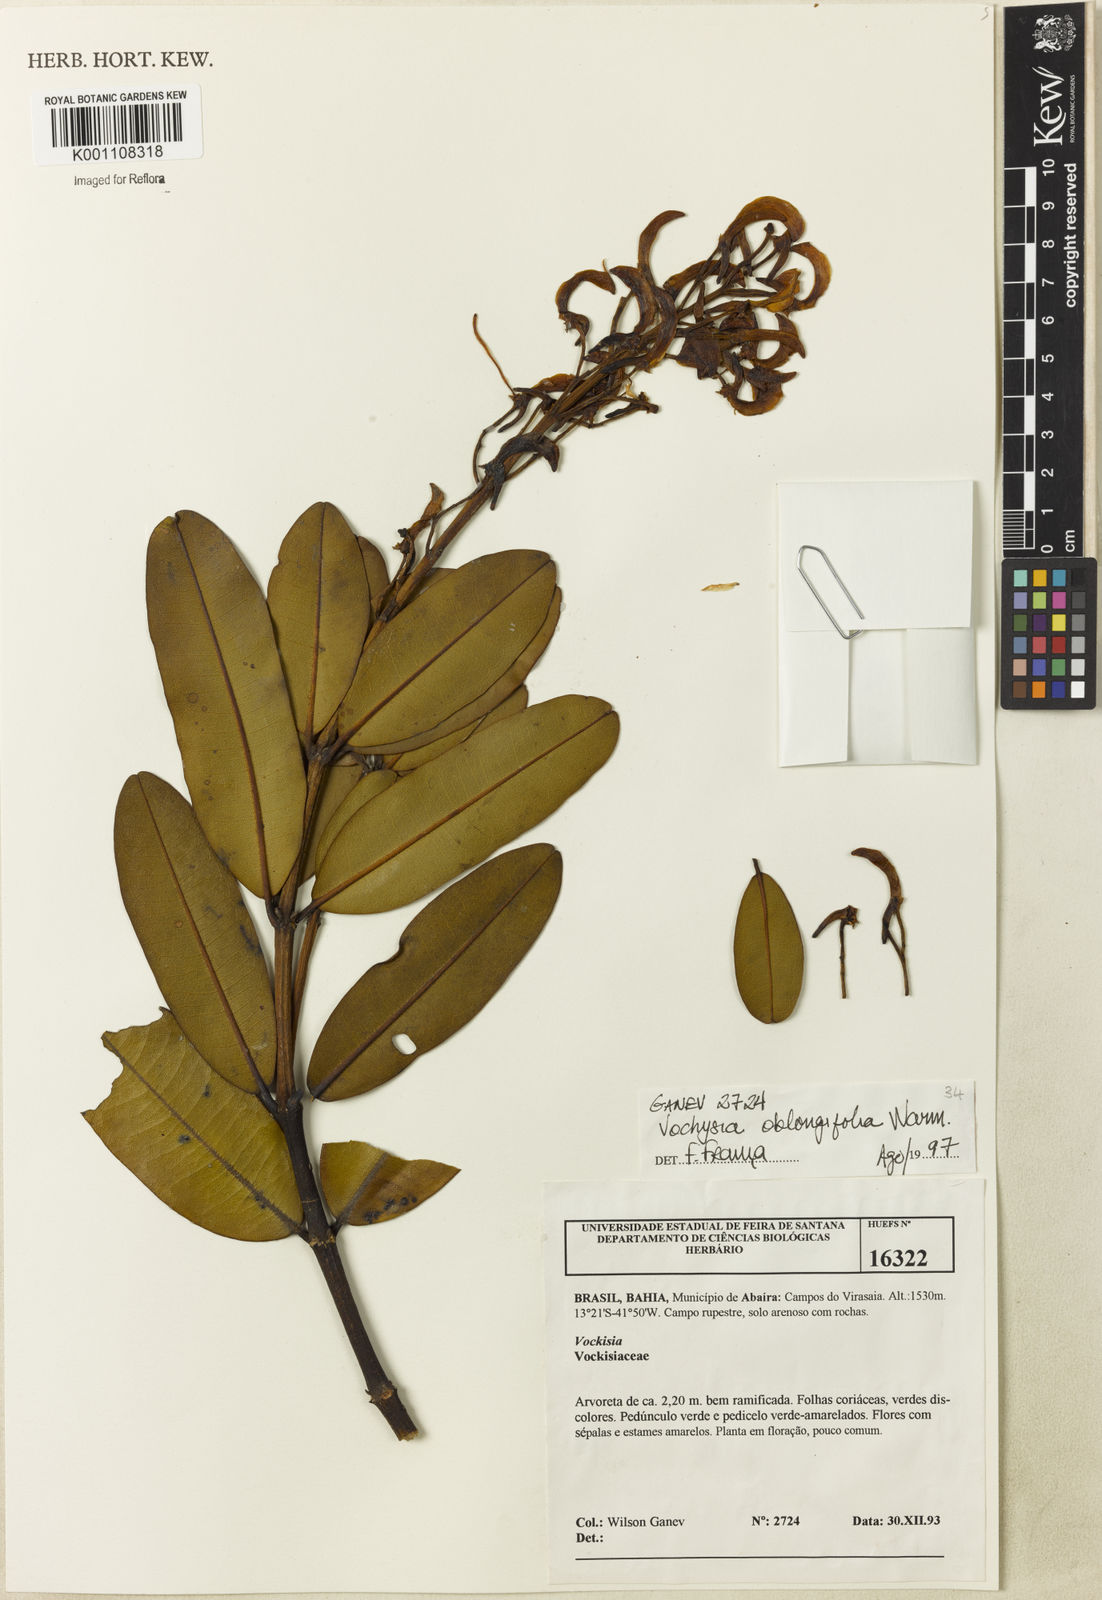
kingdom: Plantae
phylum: Tracheophyta
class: Magnoliopsida
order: Myrtales
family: Vochysiaceae
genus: Vochysia
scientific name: Vochysia oblongifolia
